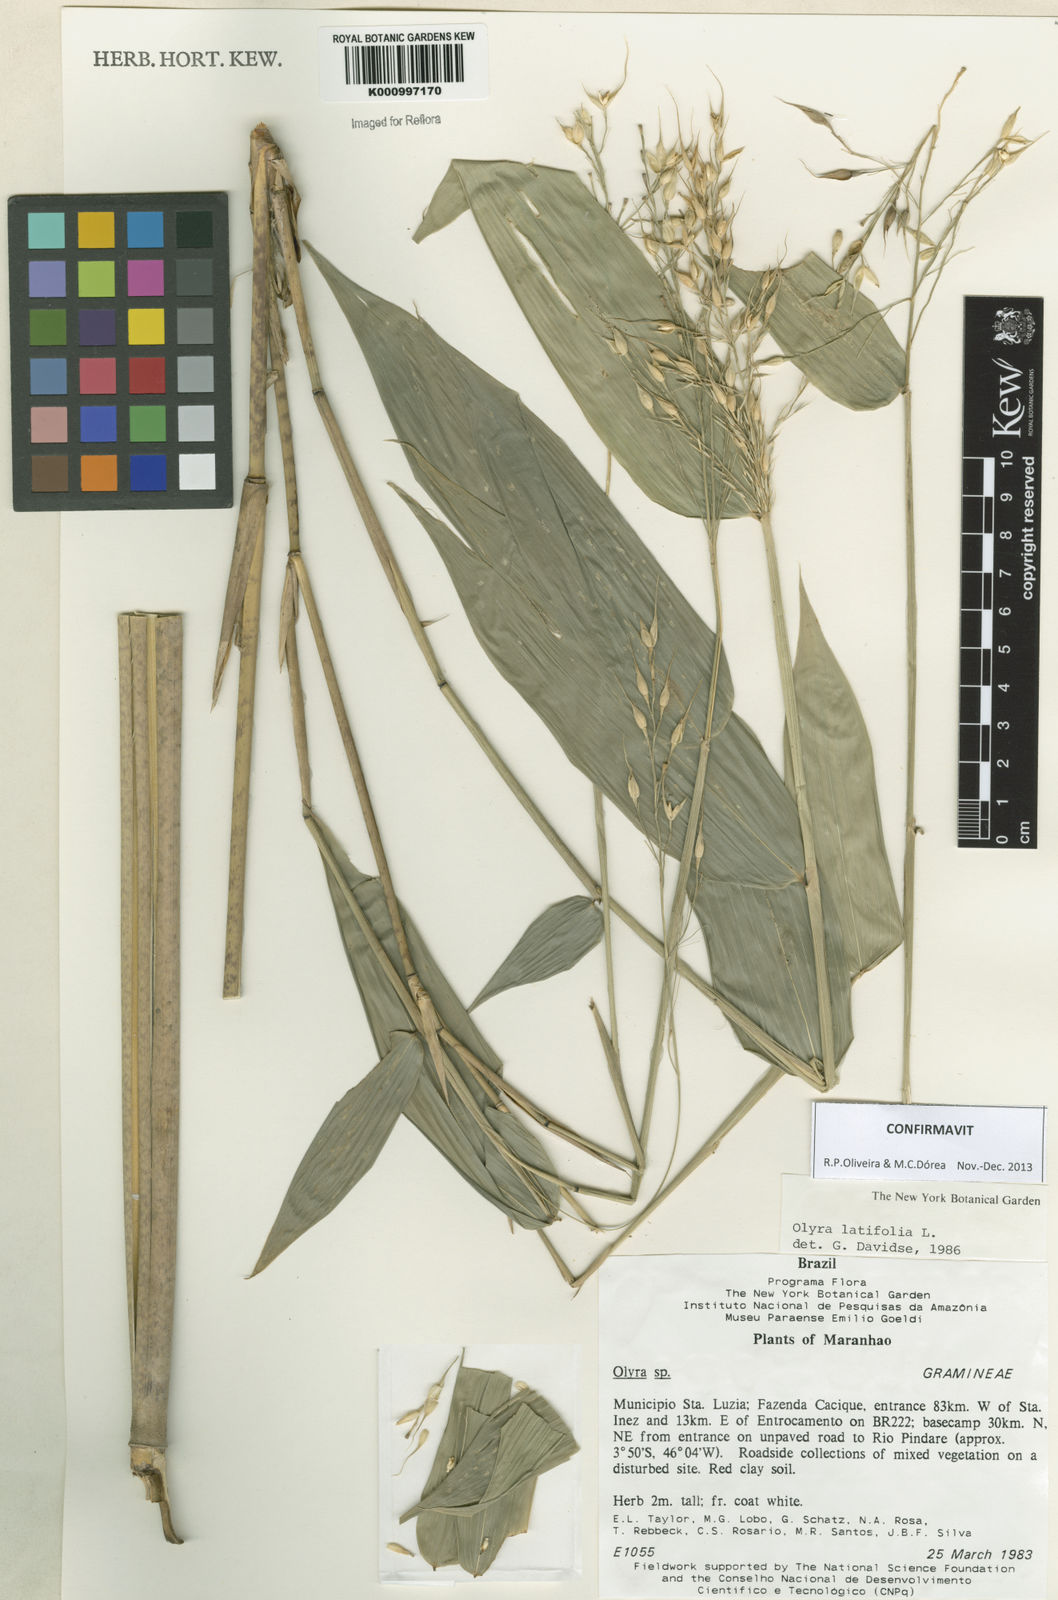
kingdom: Plantae
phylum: Tracheophyta
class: Liliopsida
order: Poales
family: Poaceae
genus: Olyra
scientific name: Olyra latifolia
